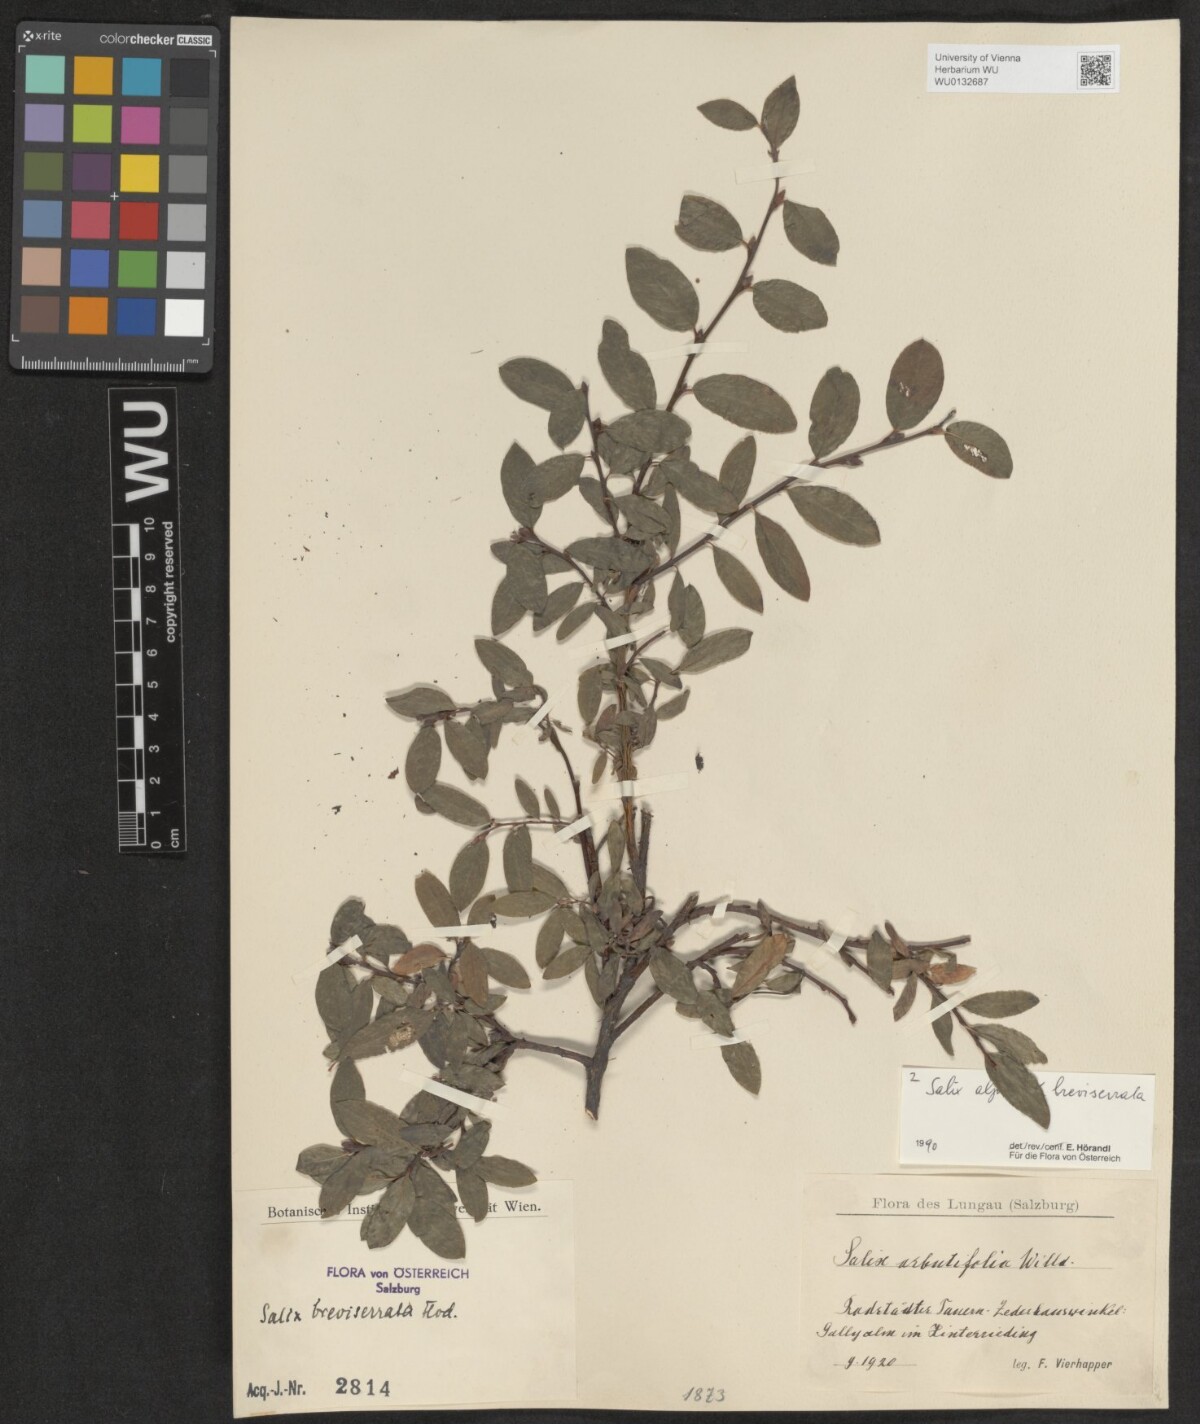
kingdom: Plantae
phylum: Tracheophyta
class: Magnoliopsida
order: Malpighiales
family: Salicaceae
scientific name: Salicaceae
